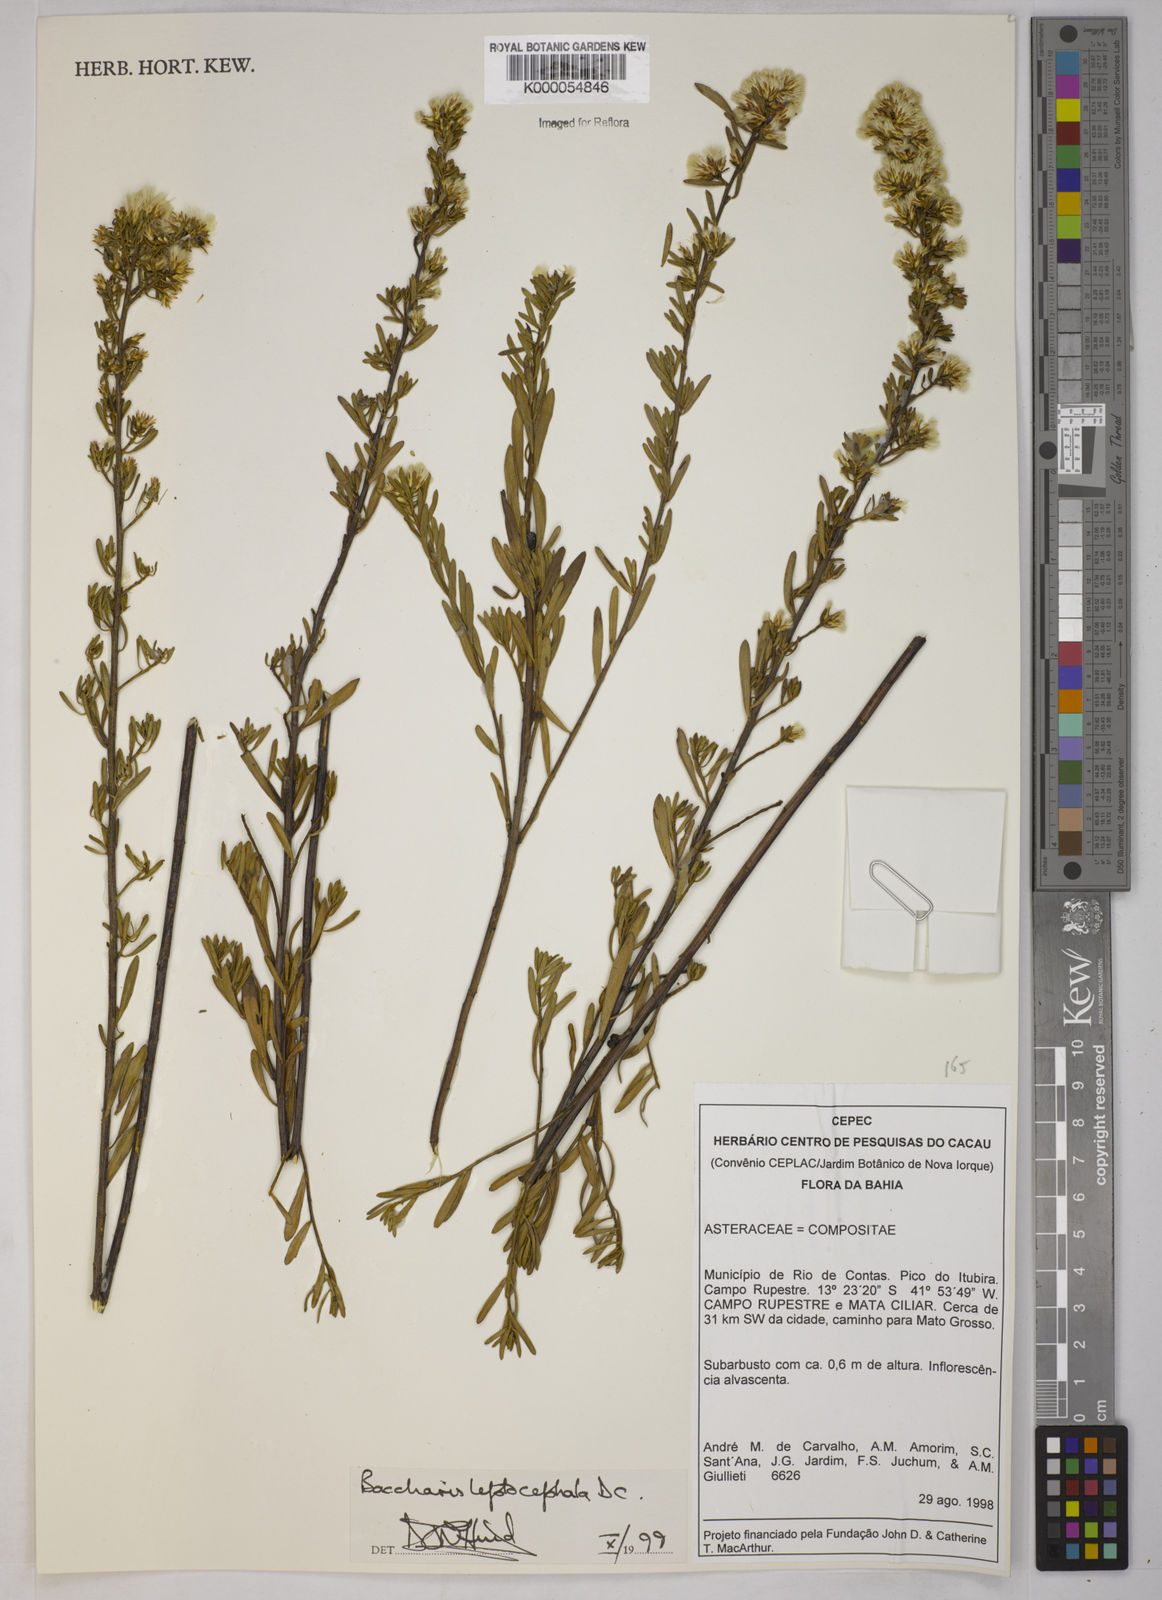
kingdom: Plantae
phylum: Tracheophyta
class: Magnoliopsida
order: Asterales
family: Asteraceae
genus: Baccharis
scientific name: Baccharis leptocephala
